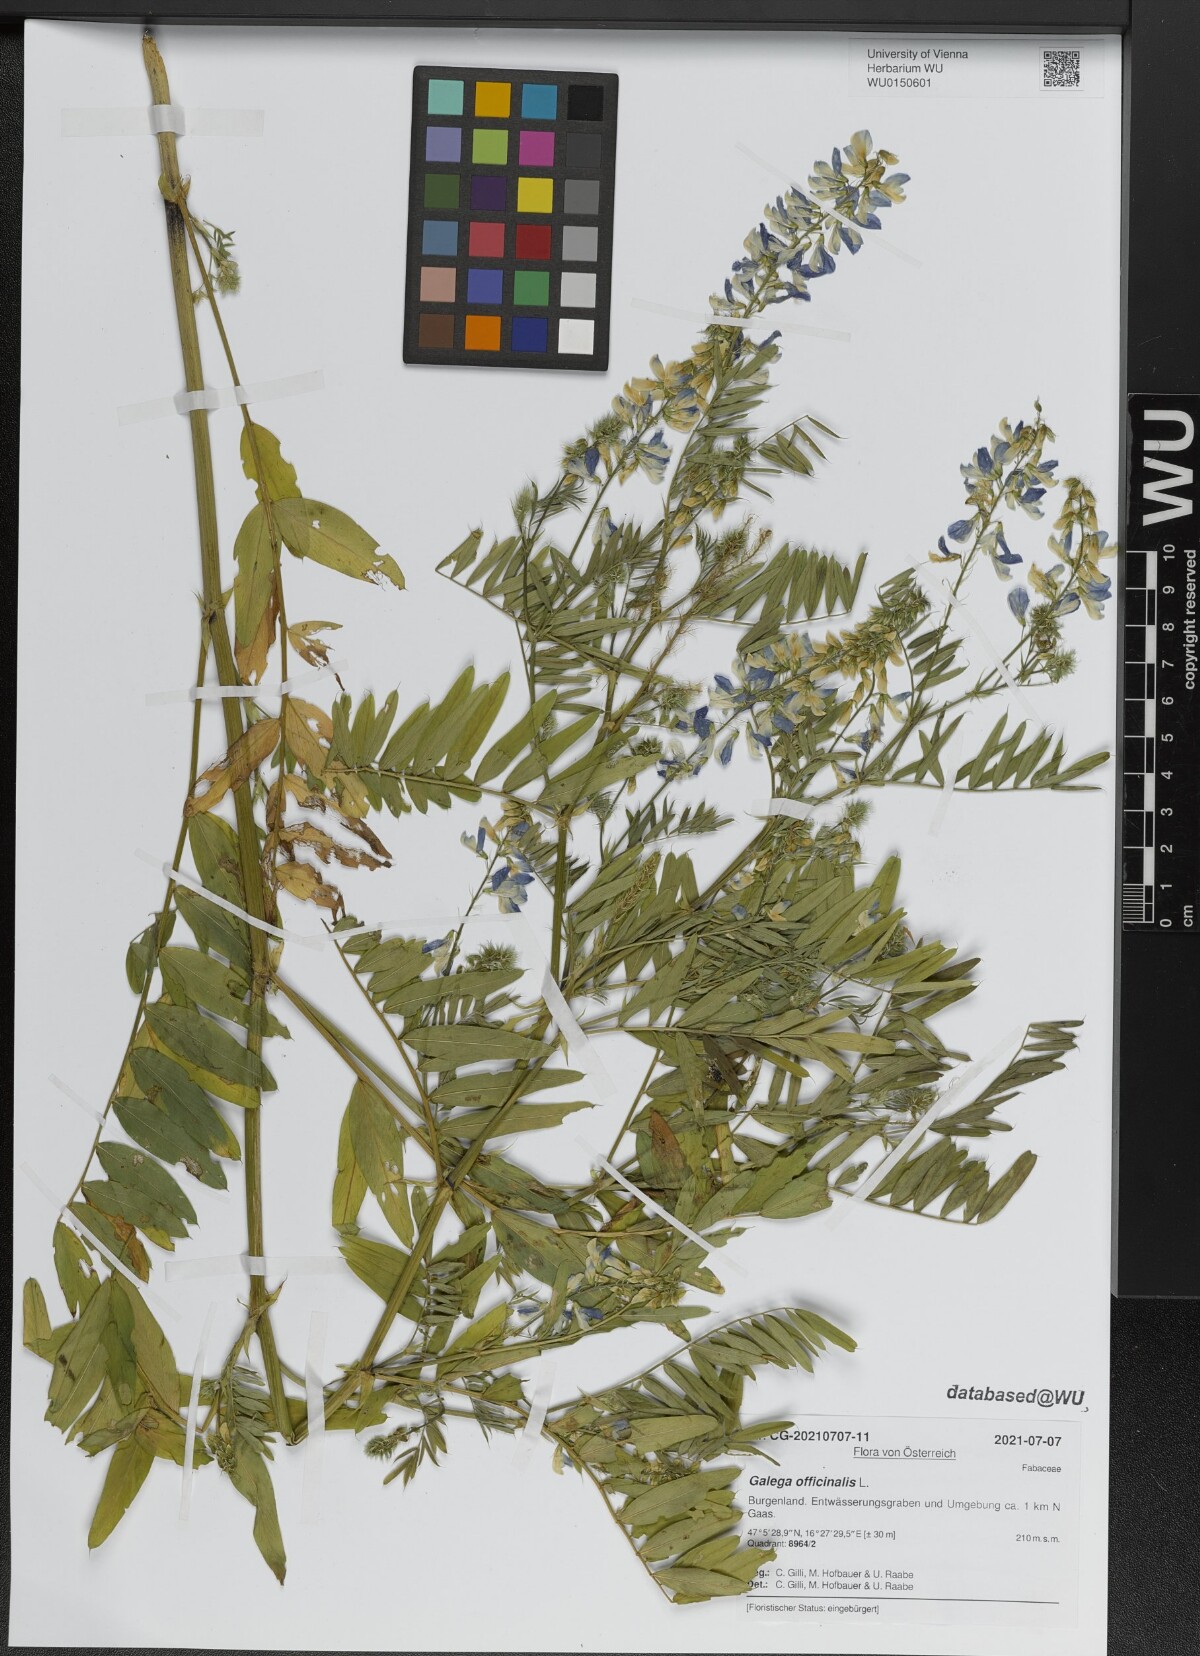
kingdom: Plantae
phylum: Tracheophyta
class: Magnoliopsida
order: Fabales
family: Fabaceae
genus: Galega
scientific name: Galega officinalis
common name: Goat's-rue
